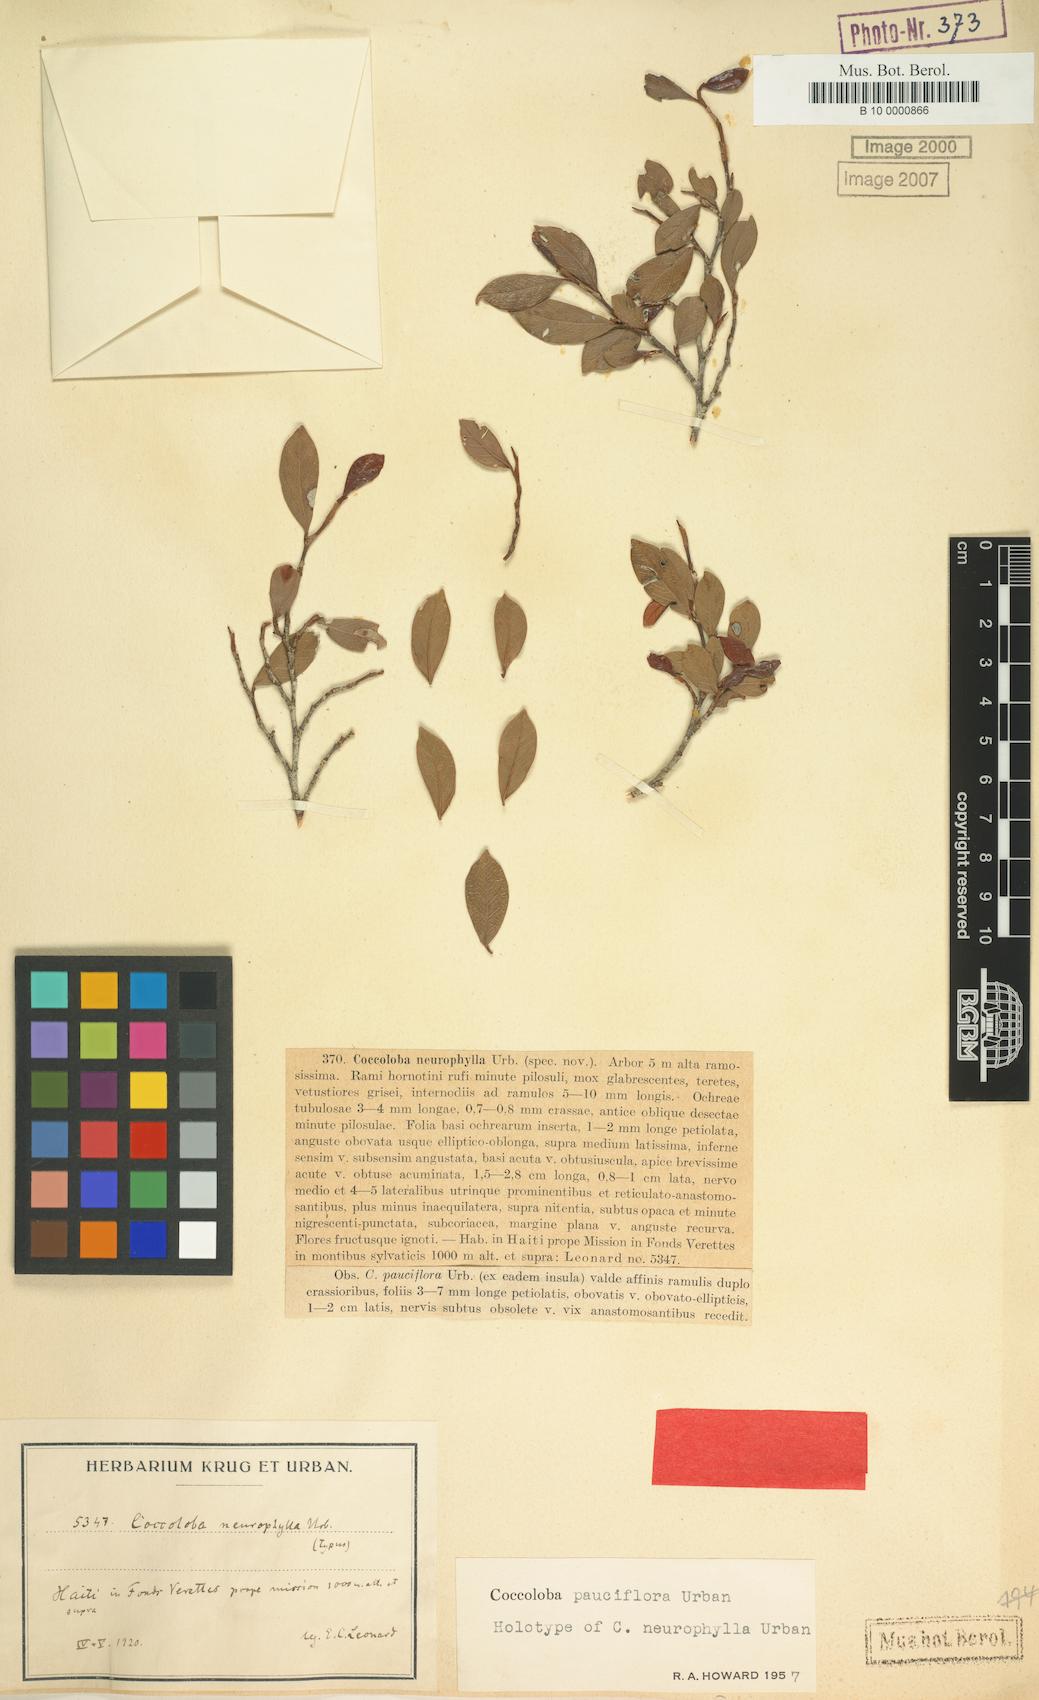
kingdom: Plantae
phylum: Tracheophyta
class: Magnoliopsida
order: Caryophyllales
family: Polygonaceae
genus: Coccoloba
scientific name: Coccoloba pauciflora
